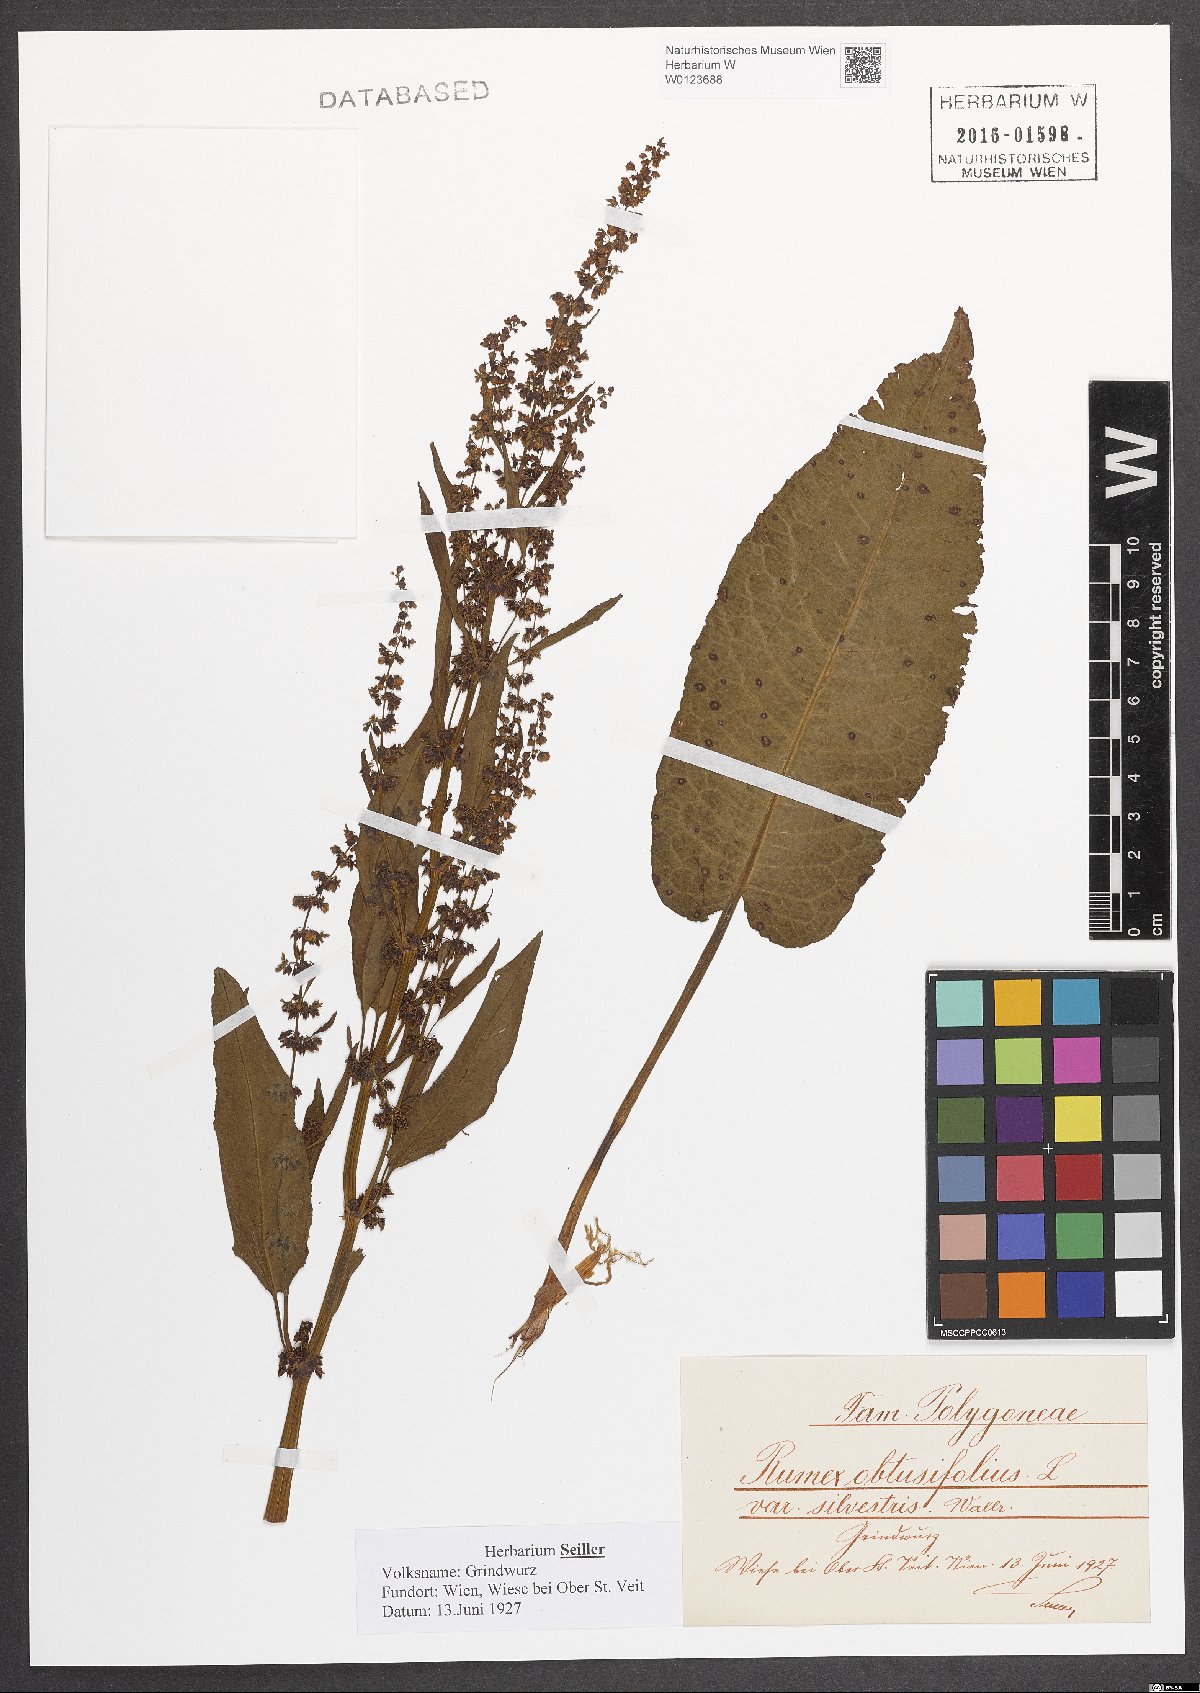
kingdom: Plantae
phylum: Tracheophyta
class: Magnoliopsida
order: Caryophyllales
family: Polygonaceae
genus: Rumex
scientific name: Rumex obtusifolius
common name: Bitter dock
